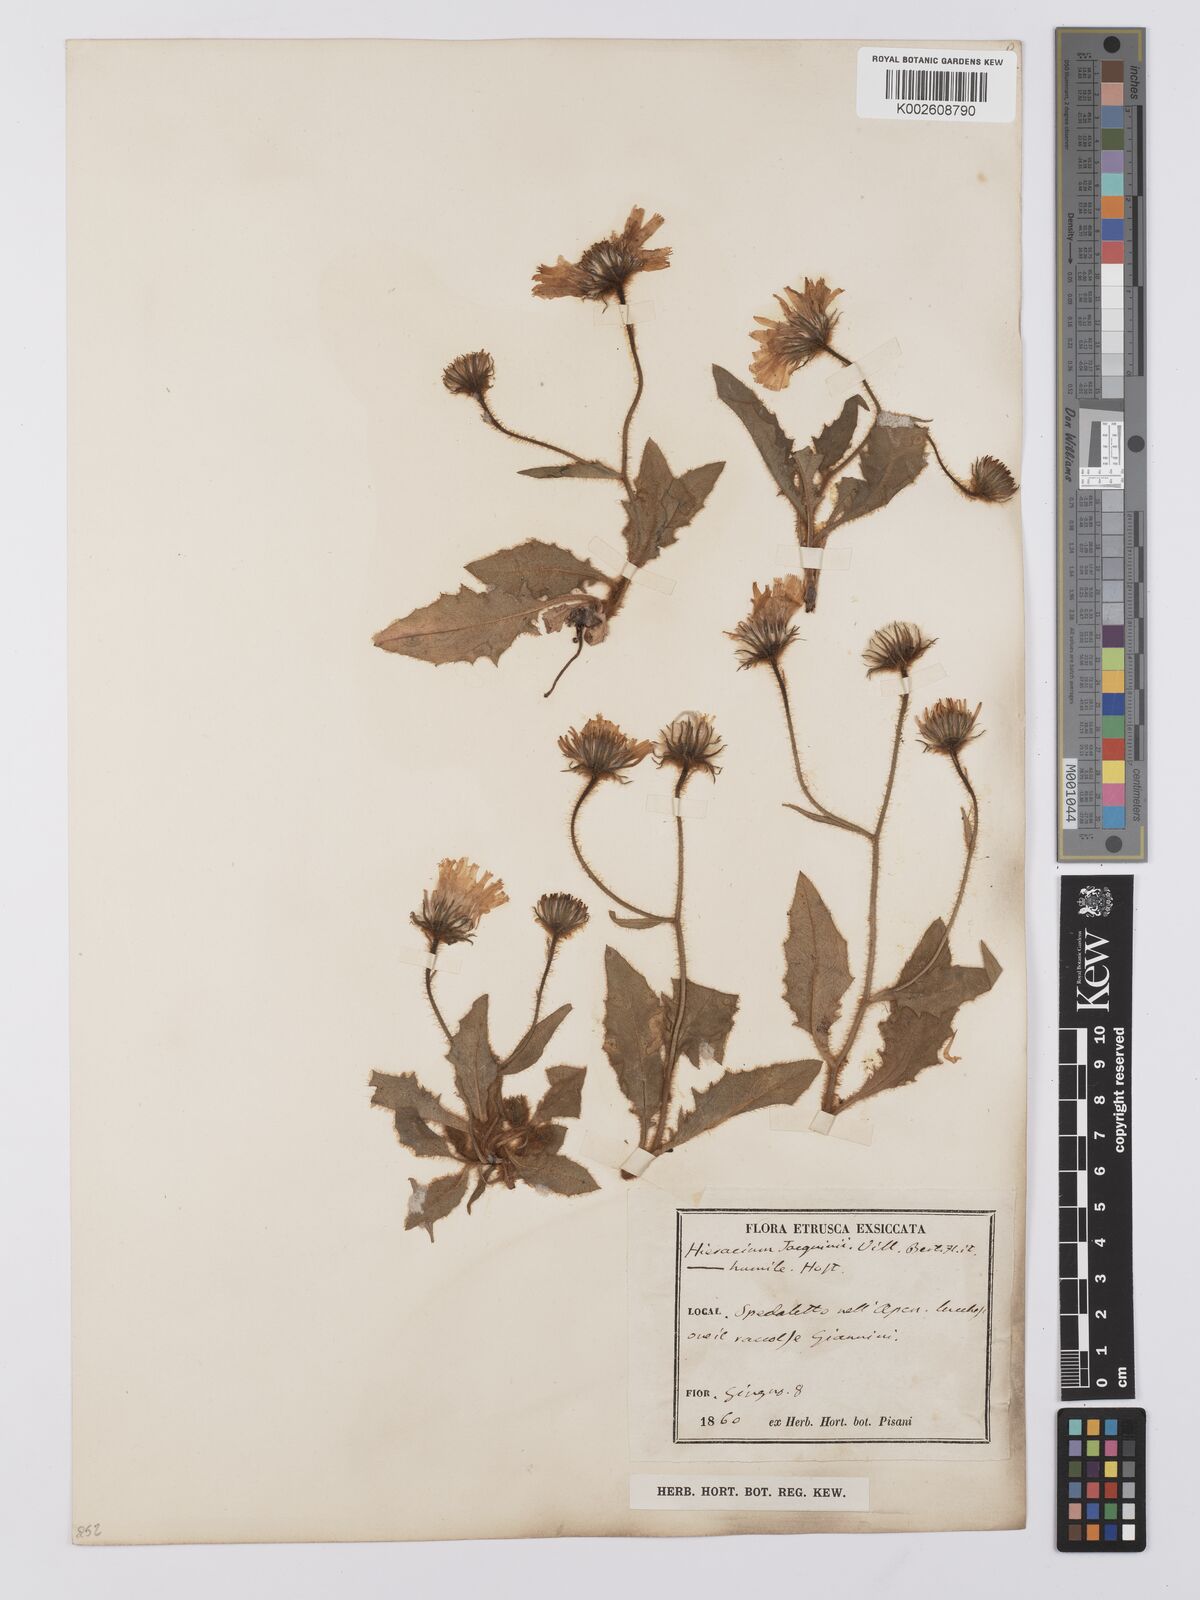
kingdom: Plantae
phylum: Tracheophyta
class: Magnoliopsida
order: Asterales
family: Asteraceae
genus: Hieracium
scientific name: Hieracium humile
